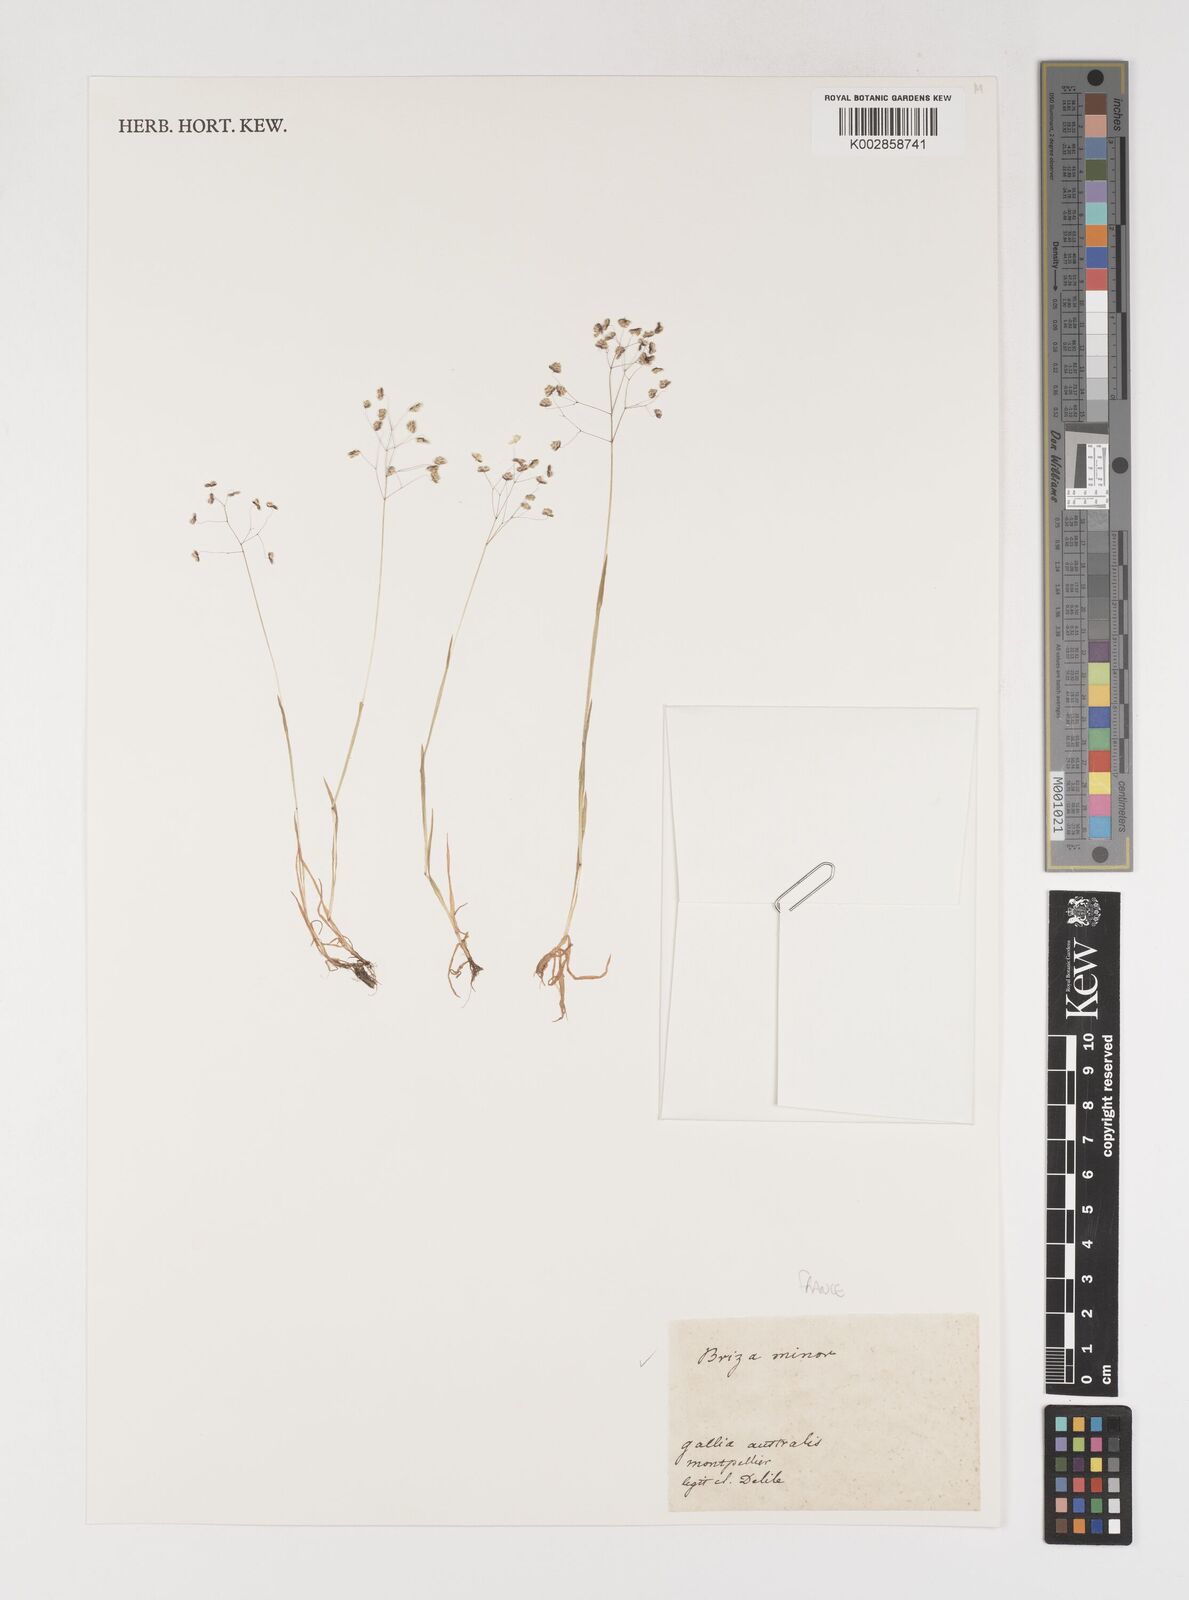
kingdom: Plantae
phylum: Tracheophyta
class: Liliopsida
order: Poales
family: Poaceae
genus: Briza
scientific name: Briza minor
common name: Lesser quaking-grass
